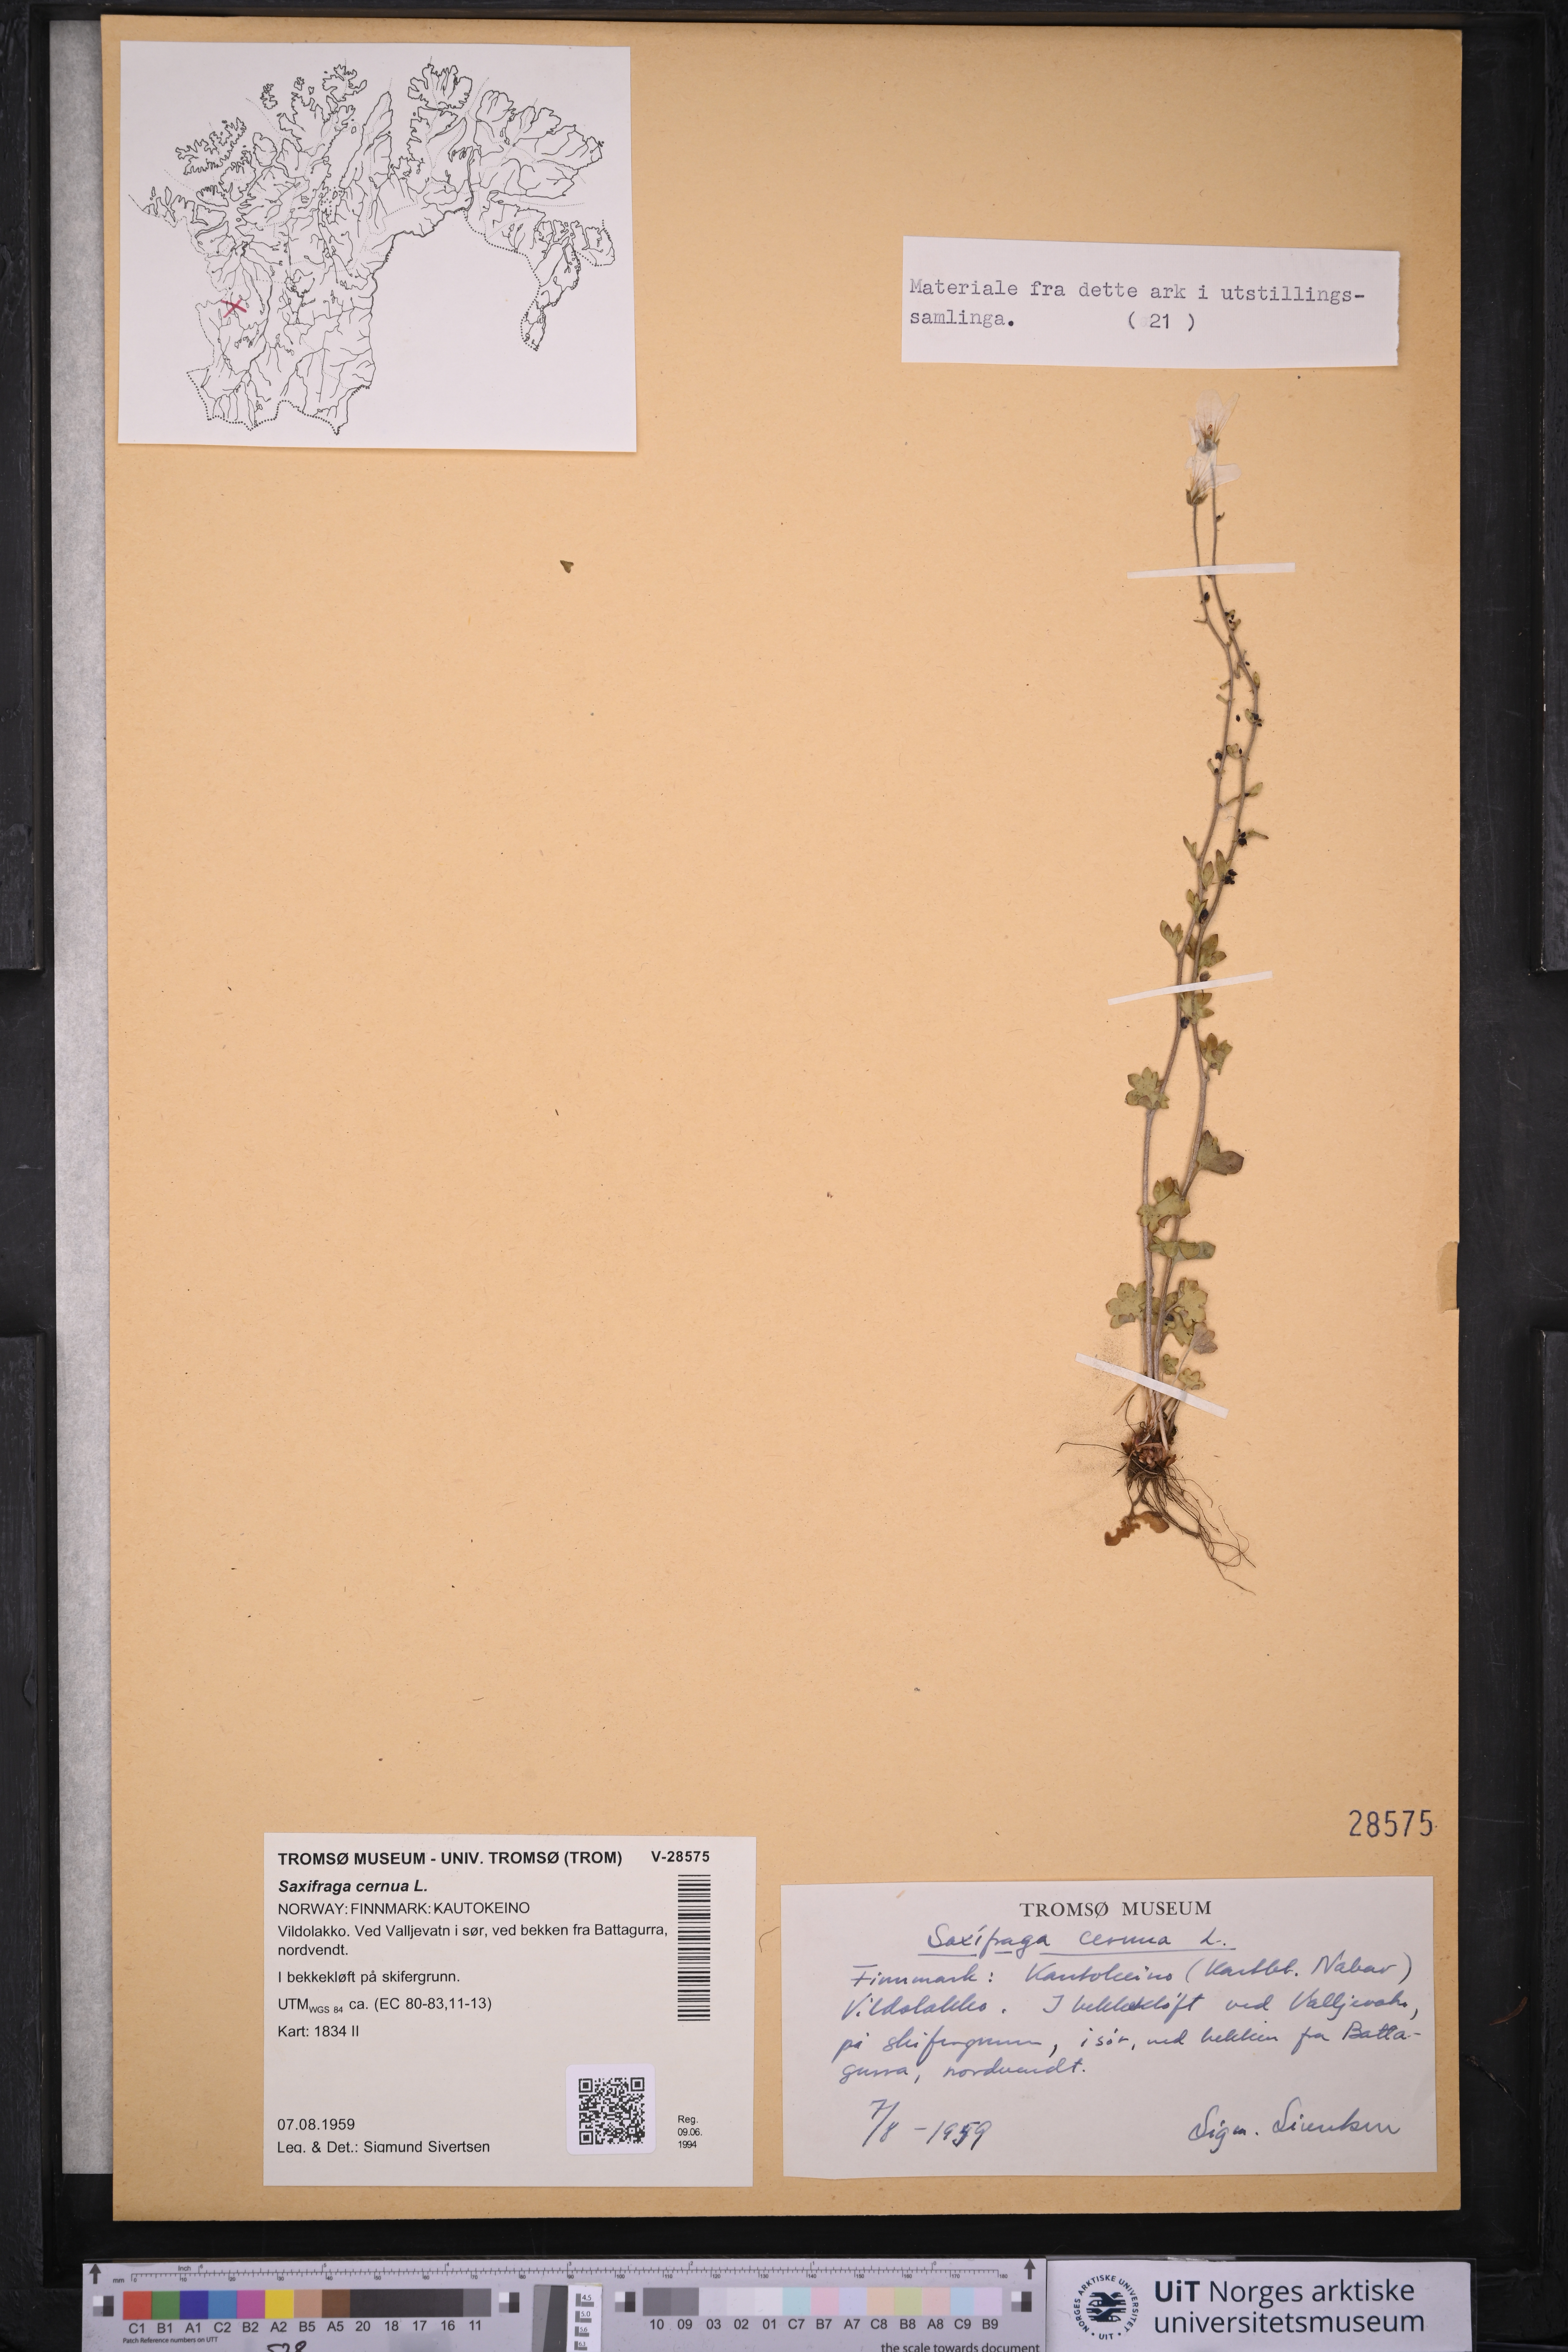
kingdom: Plantae
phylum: Tracheophyta
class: Magnoliopsida
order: Saxifragales
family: Saxifragaceae
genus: Saxifraga
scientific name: Saxifraga cernua
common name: Drooping saxifrage
